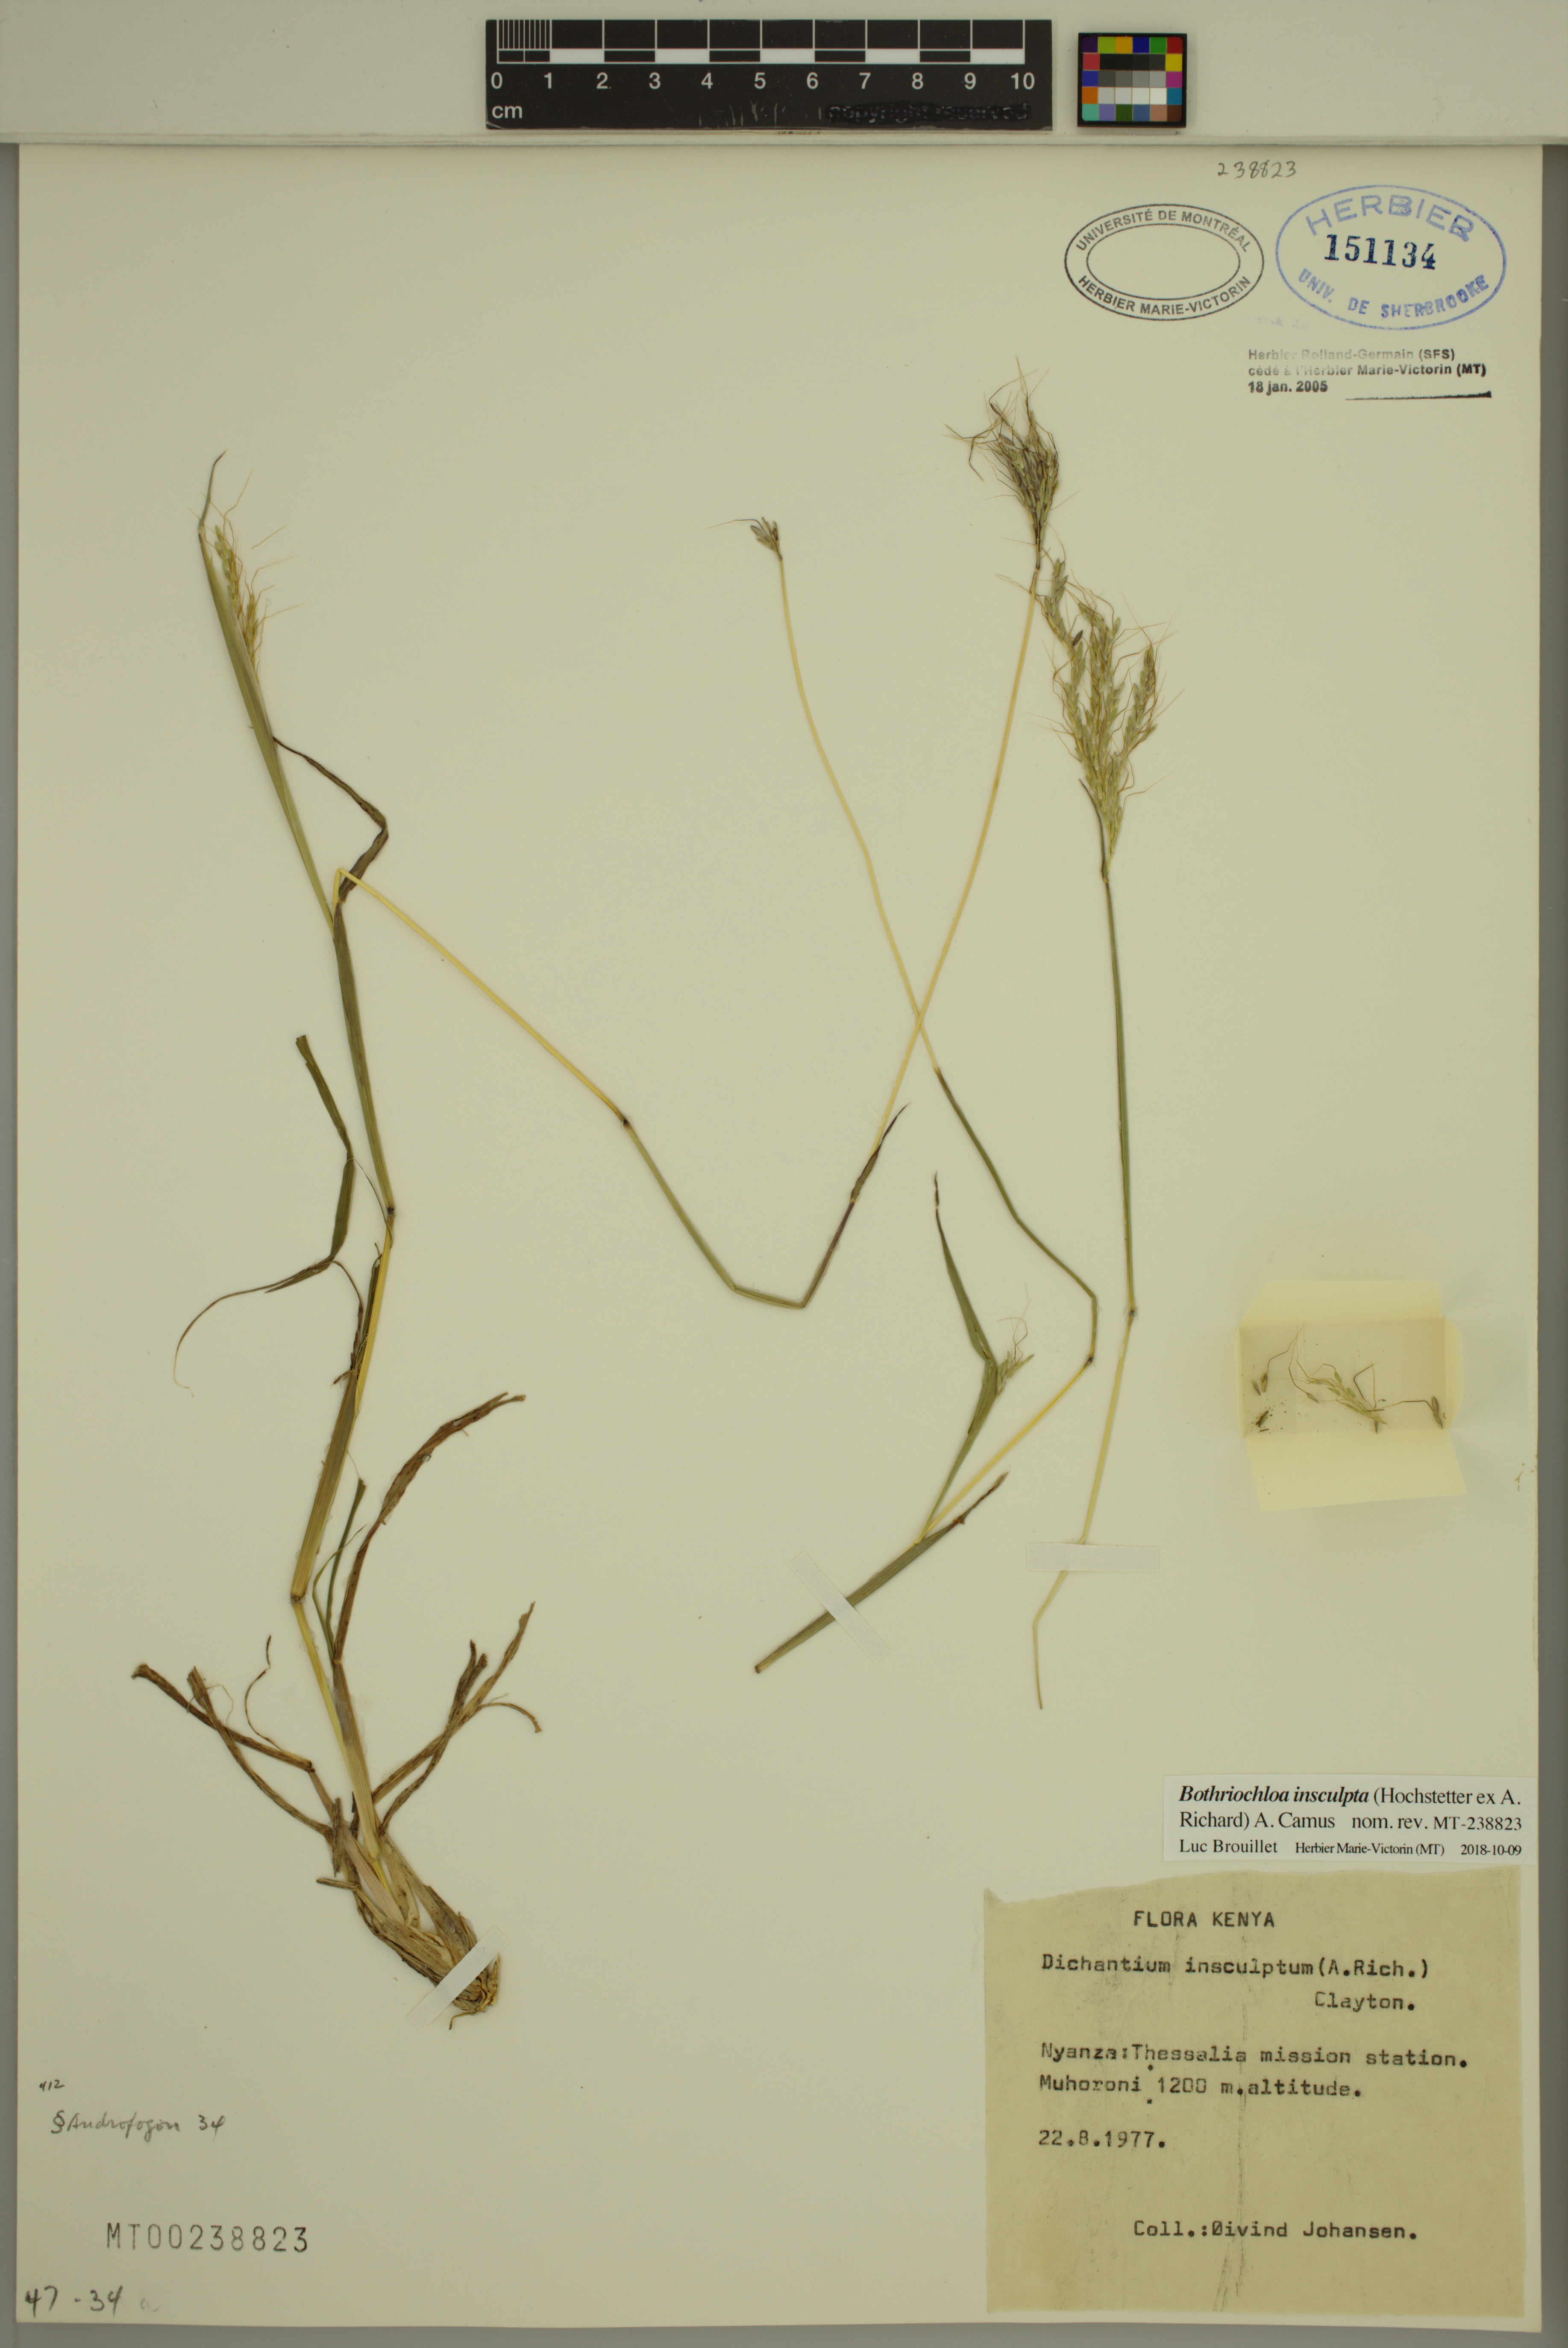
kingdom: Plantae
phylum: Tracheophyta
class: Liliopsida
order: Poales
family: Poaceae
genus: Bothriochloa
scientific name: Bothriochloa insculpta
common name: Creeping-bluegrass
